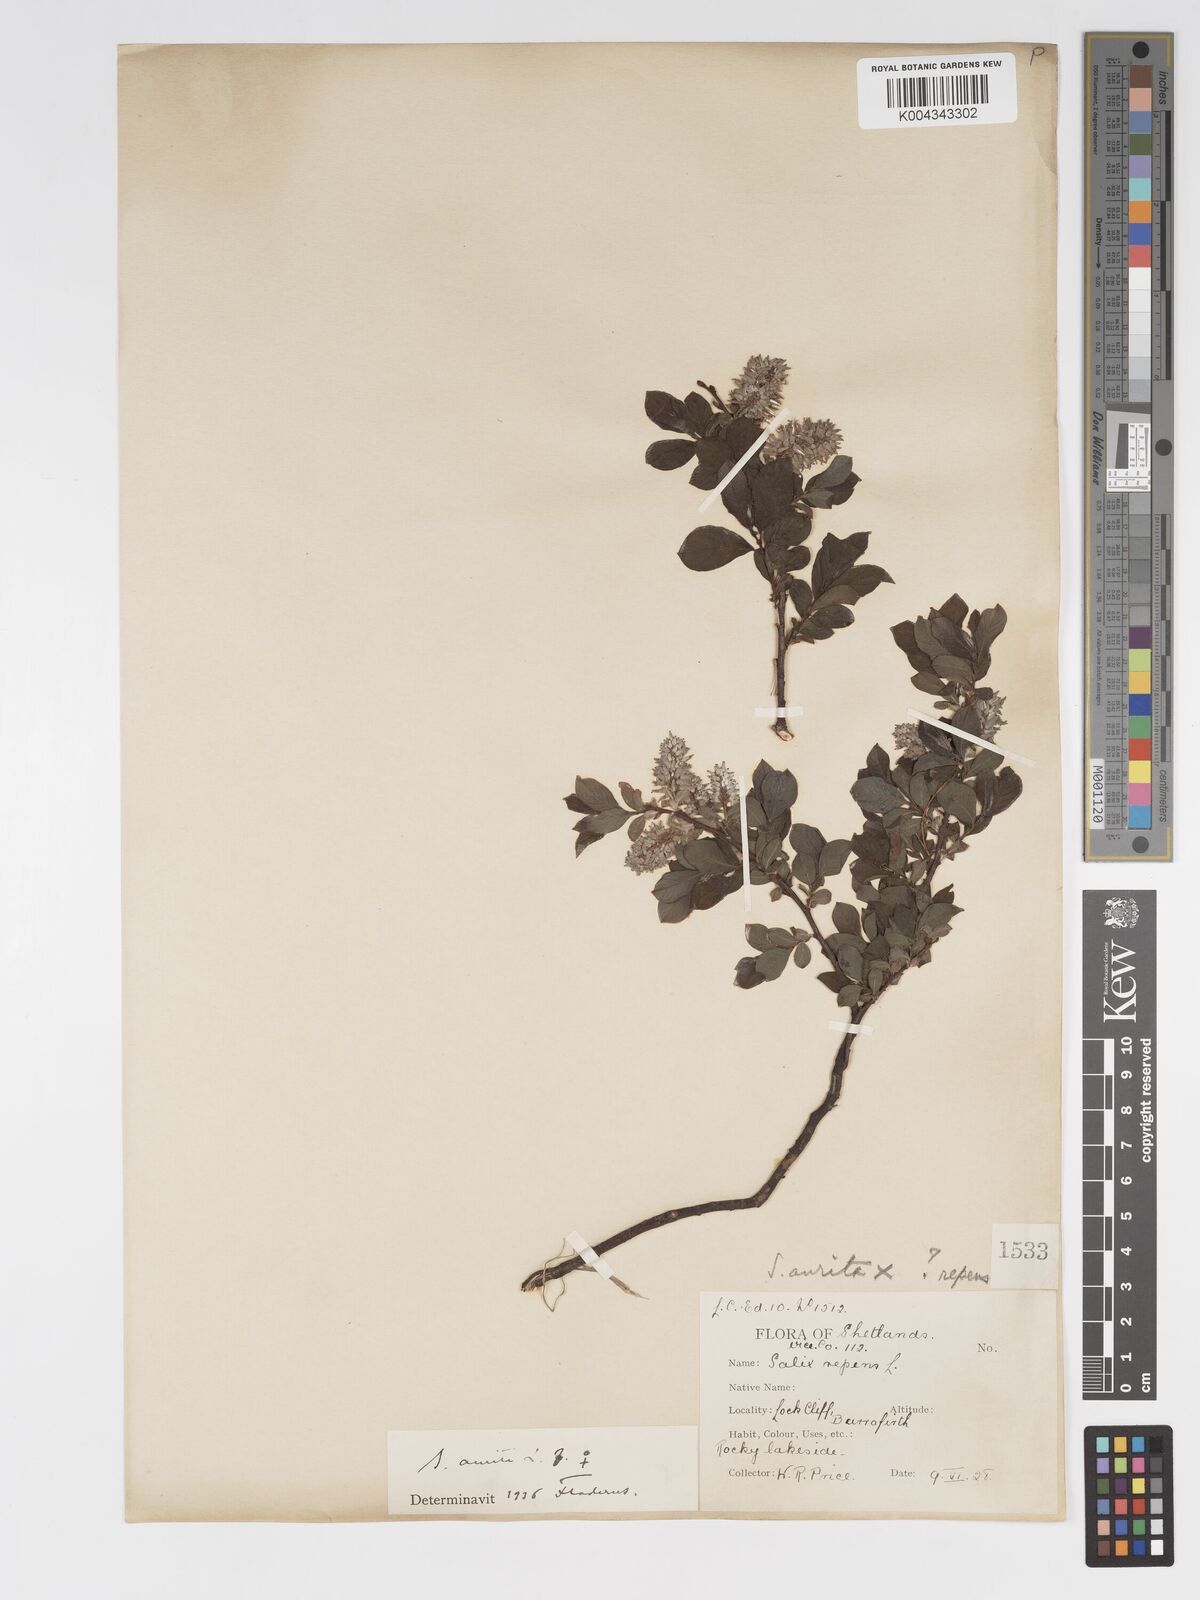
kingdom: Plantae
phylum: Tracheophyta
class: Magnoliopsida
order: Malpighiales
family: Salicaceae
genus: Salix
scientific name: Salix aurita
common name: Eared willow
